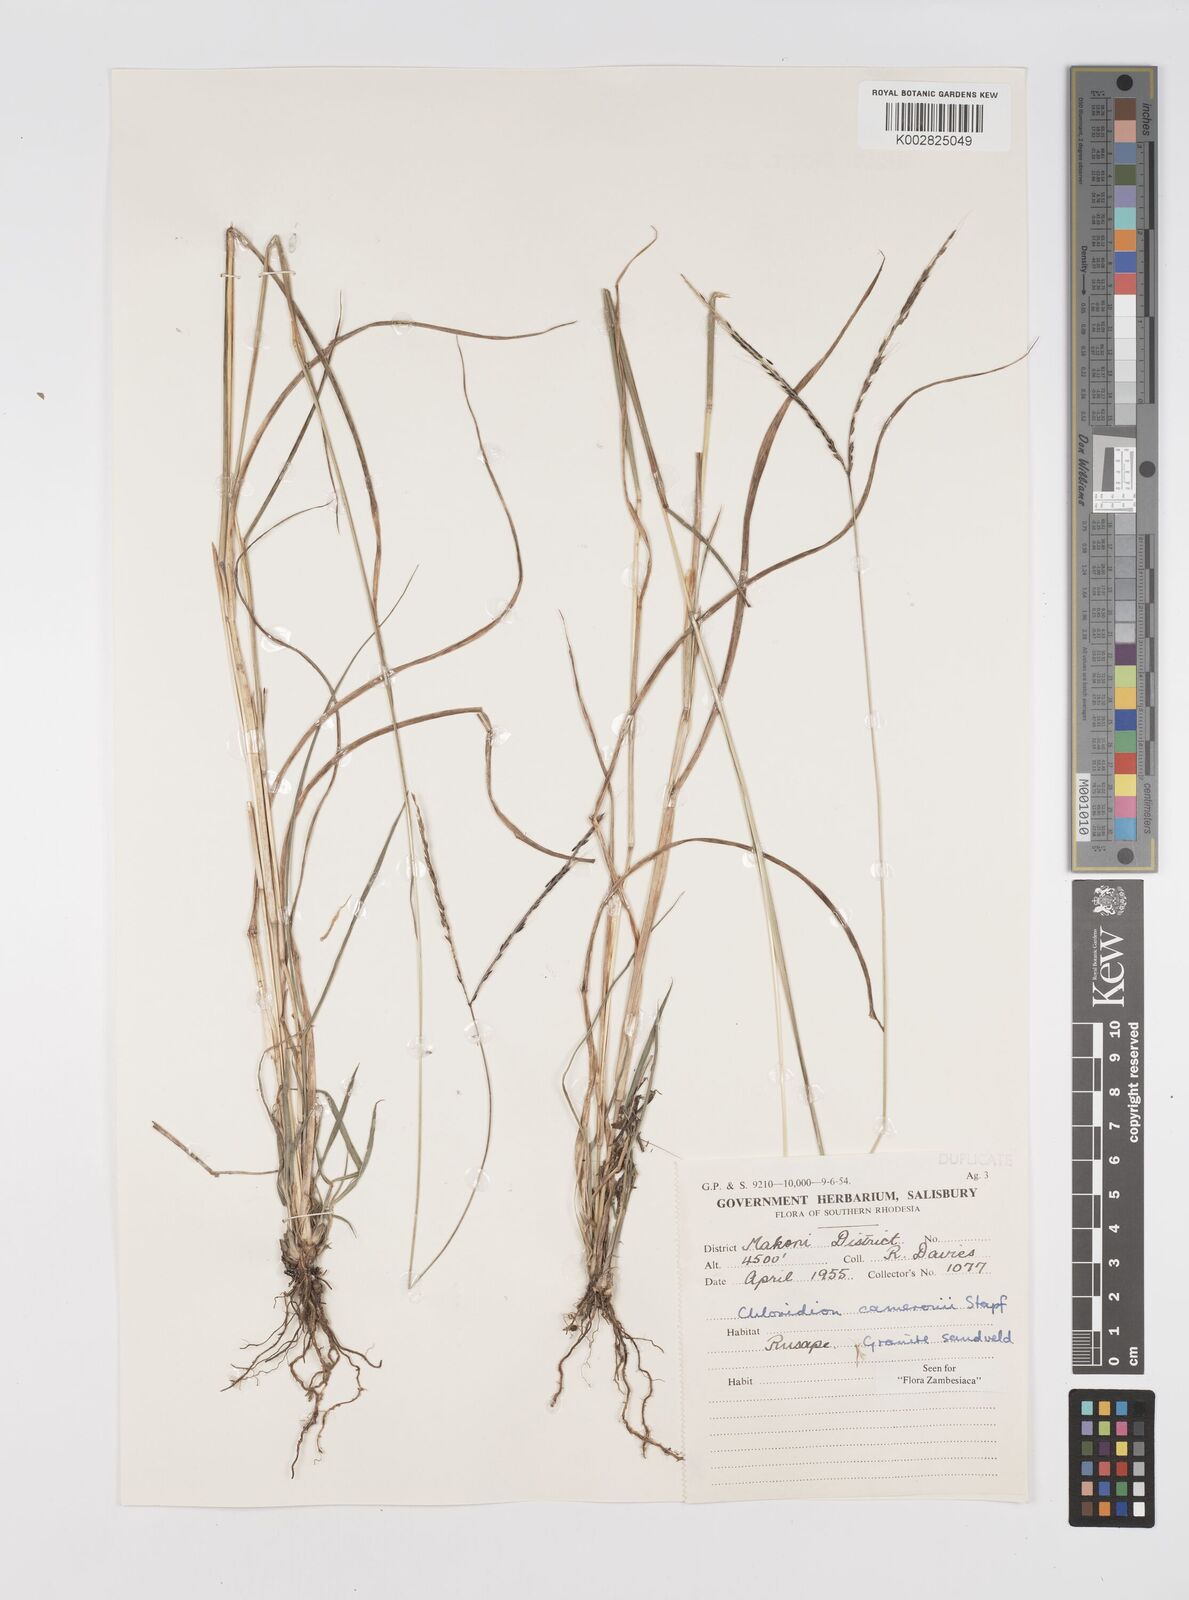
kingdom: Plantae
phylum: Tracheophyta
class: Liliopsida
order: Poales
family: Poaceae
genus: Stereochlaena
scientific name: Stereochlaena cameronii
